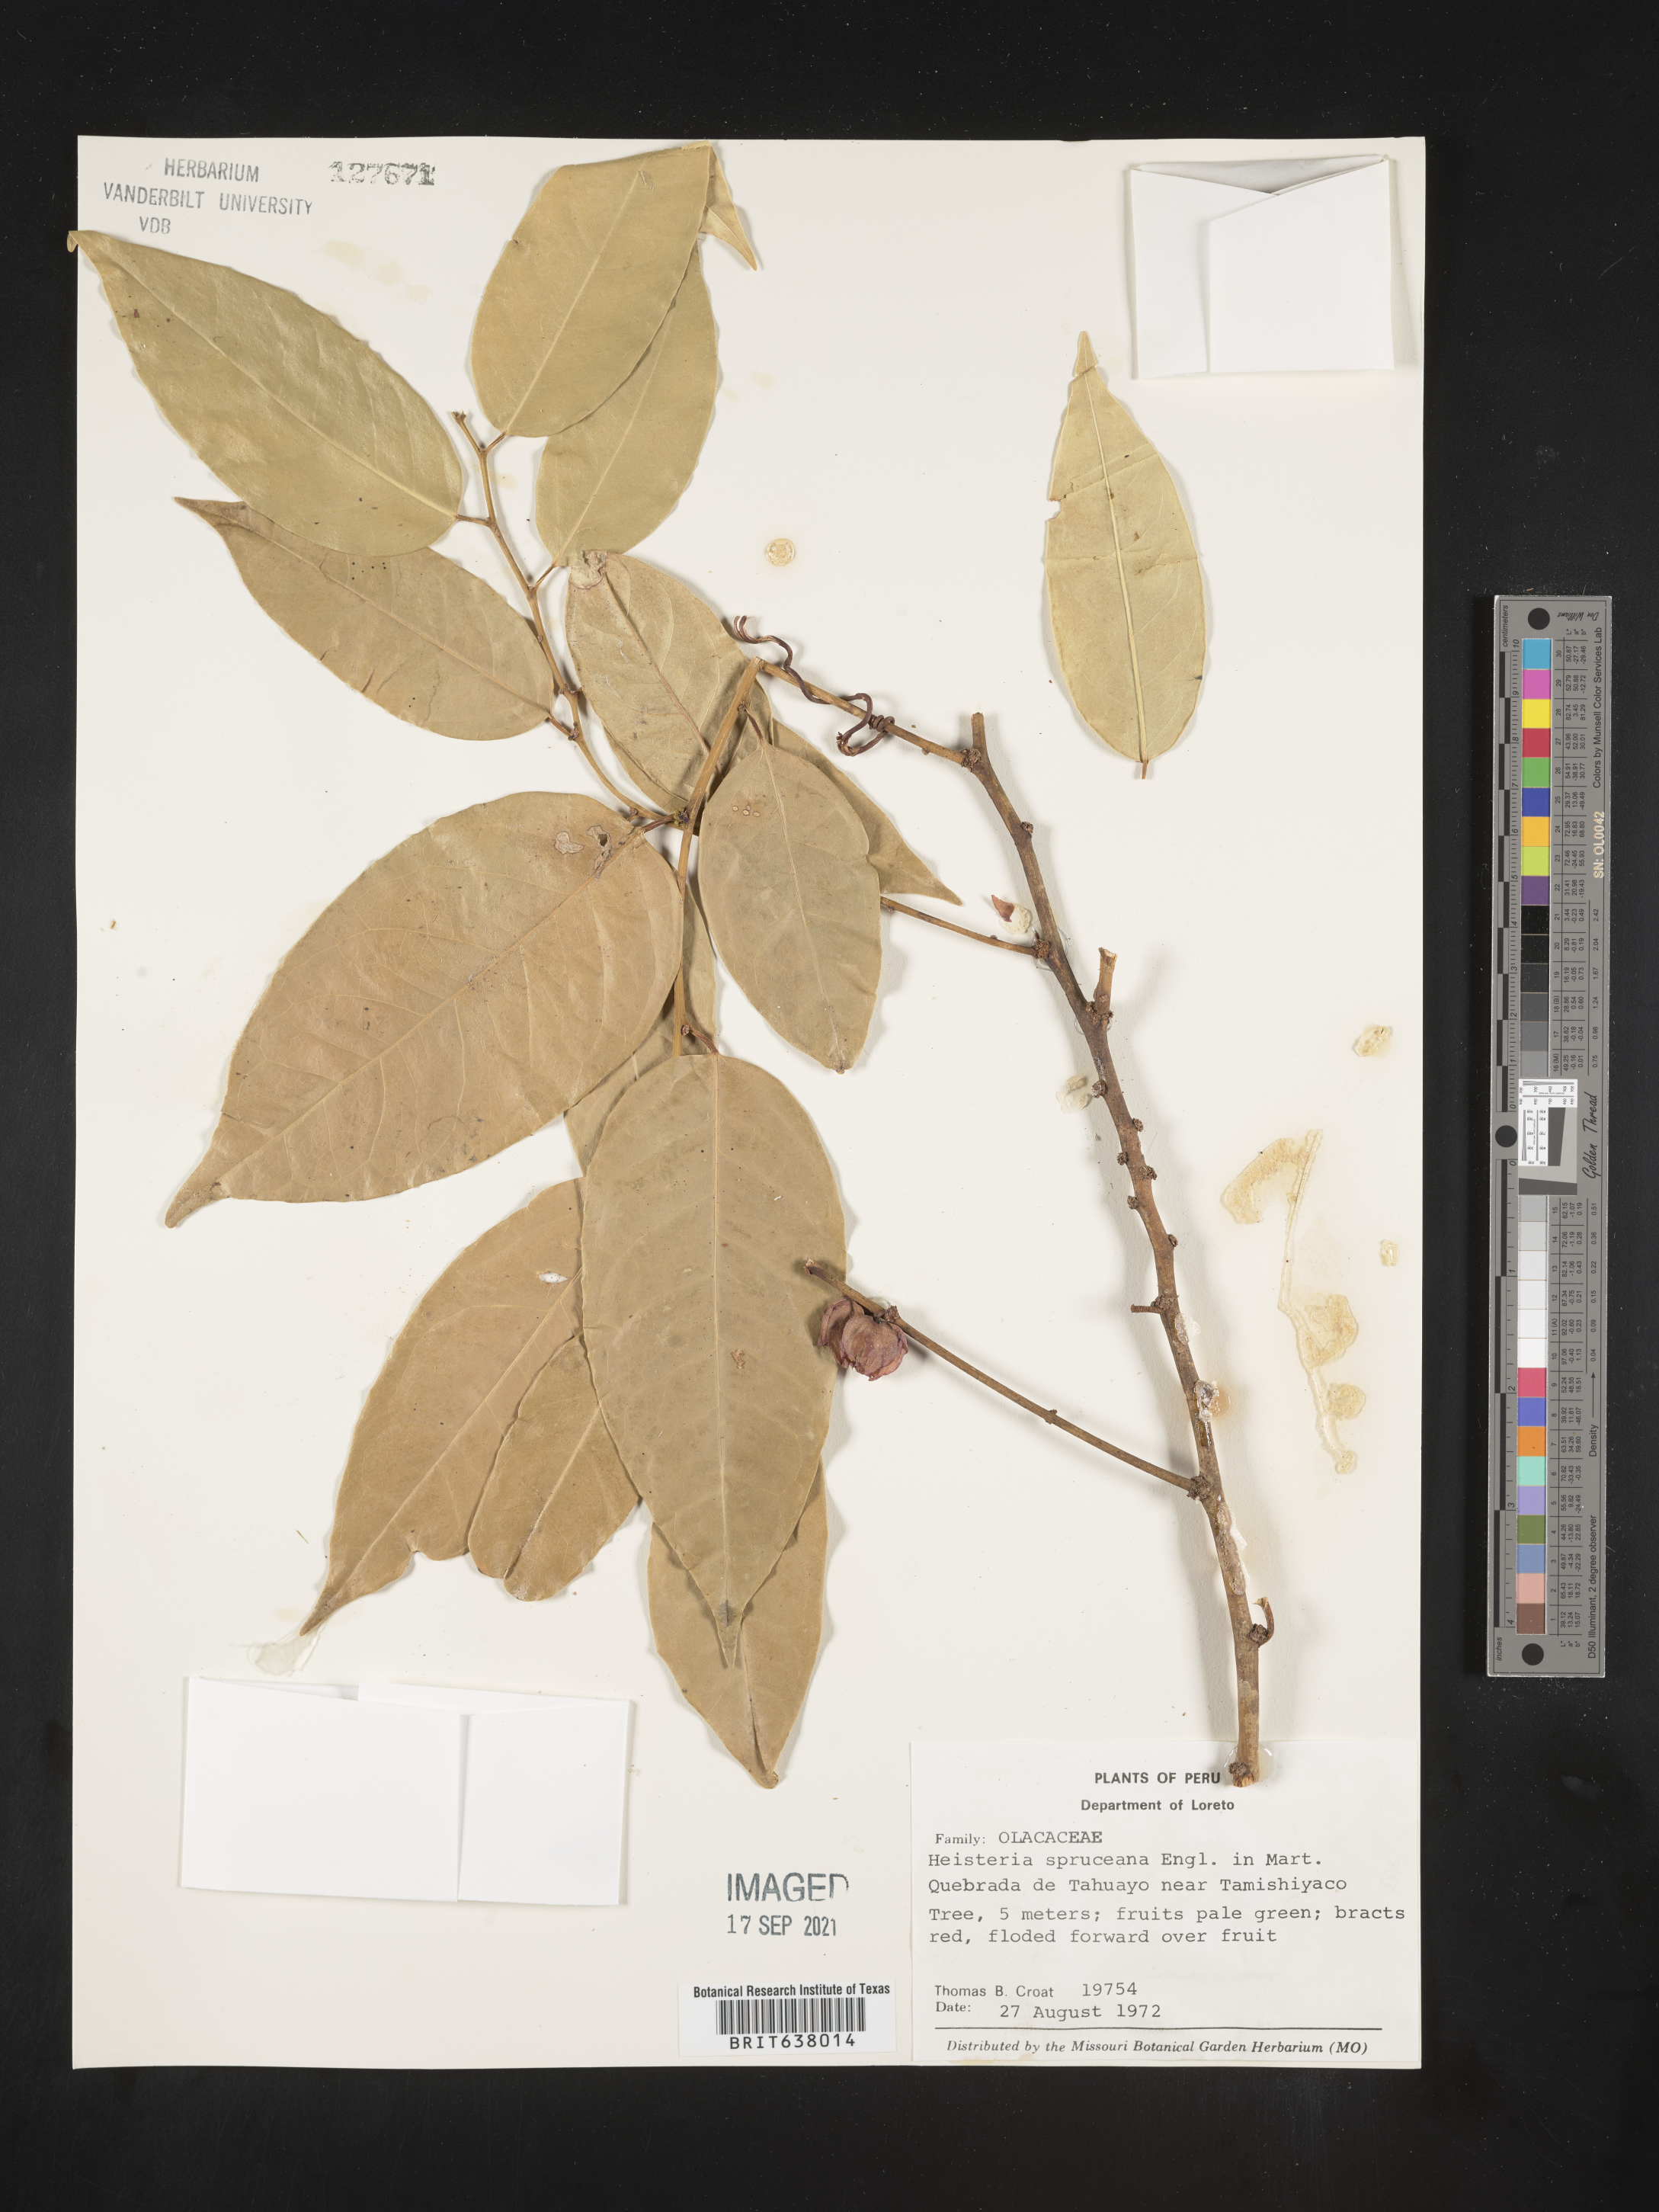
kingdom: Plantae
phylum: Tracheophyta
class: Magnoliopsida
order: Santalales
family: Erythropalaceae
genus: Heisteria
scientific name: Heisteria
